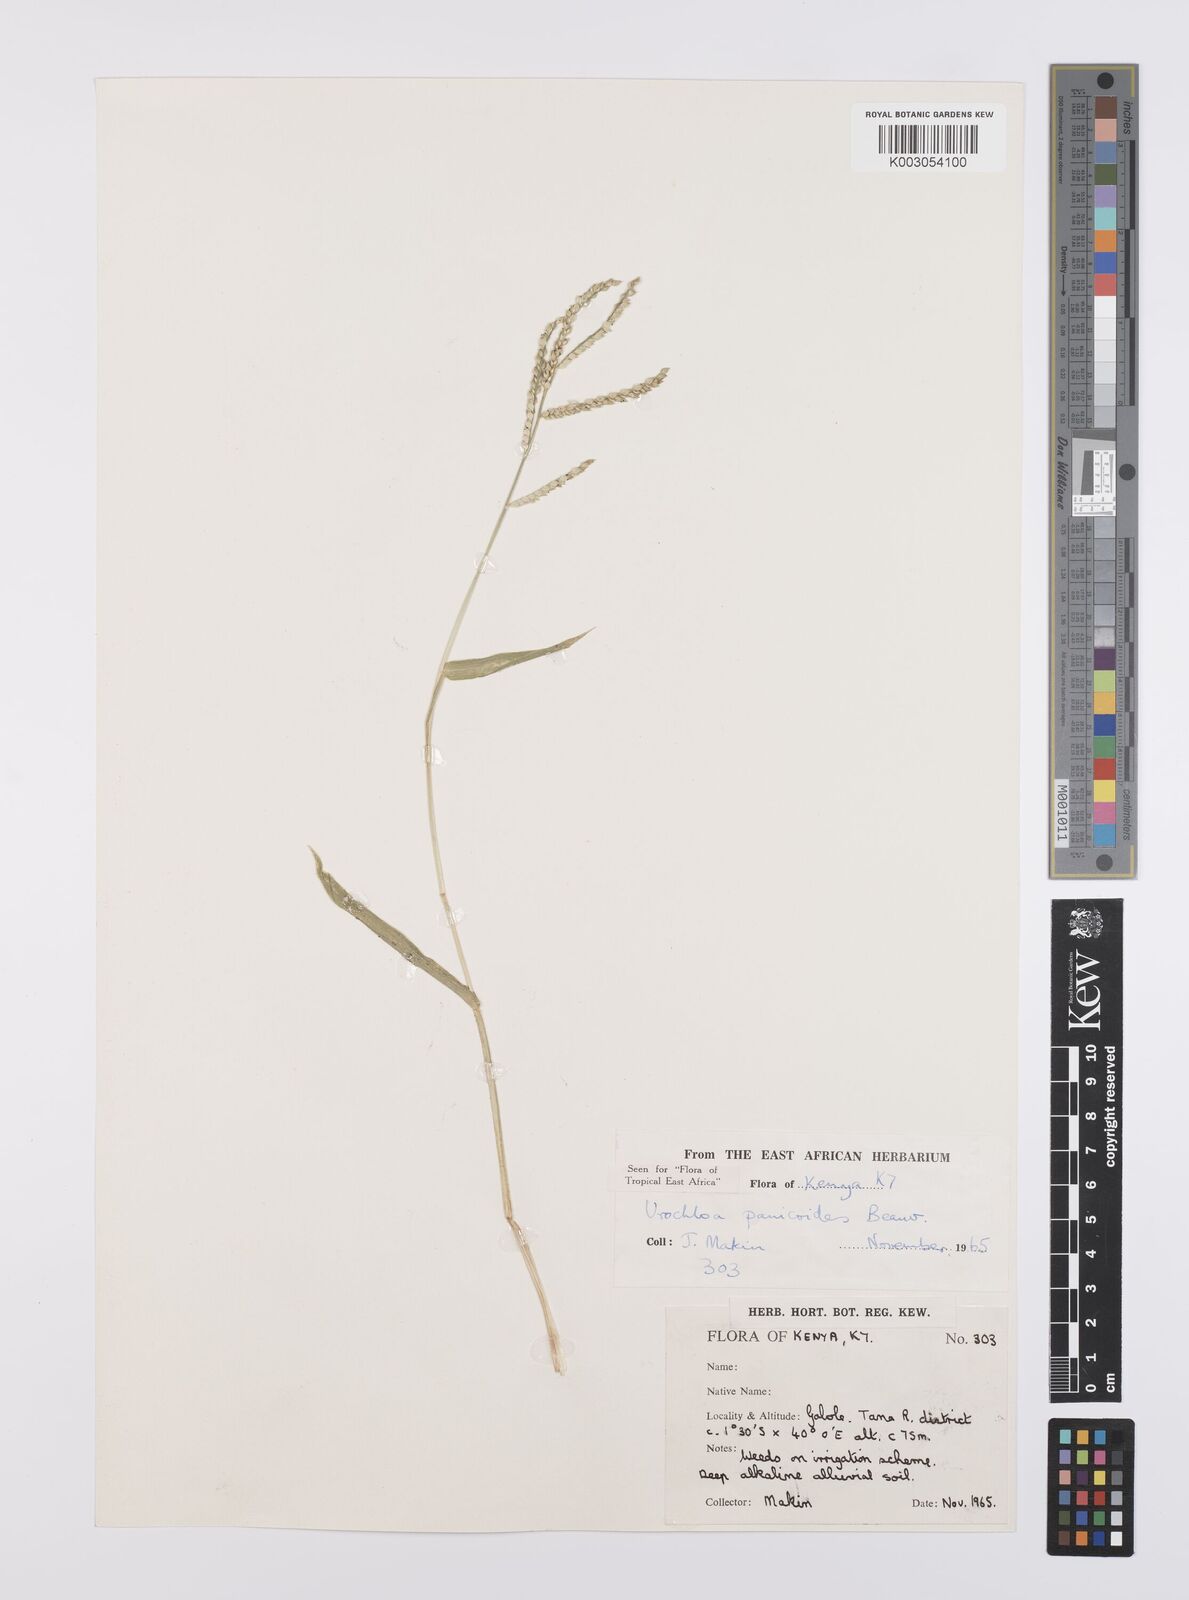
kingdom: Plantae
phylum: Tracheophyta
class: Liliopsida
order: Poales
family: Poaceae
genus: Urochloa
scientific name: Urochloa panicoides
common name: Sharp-flowered signal-grass
